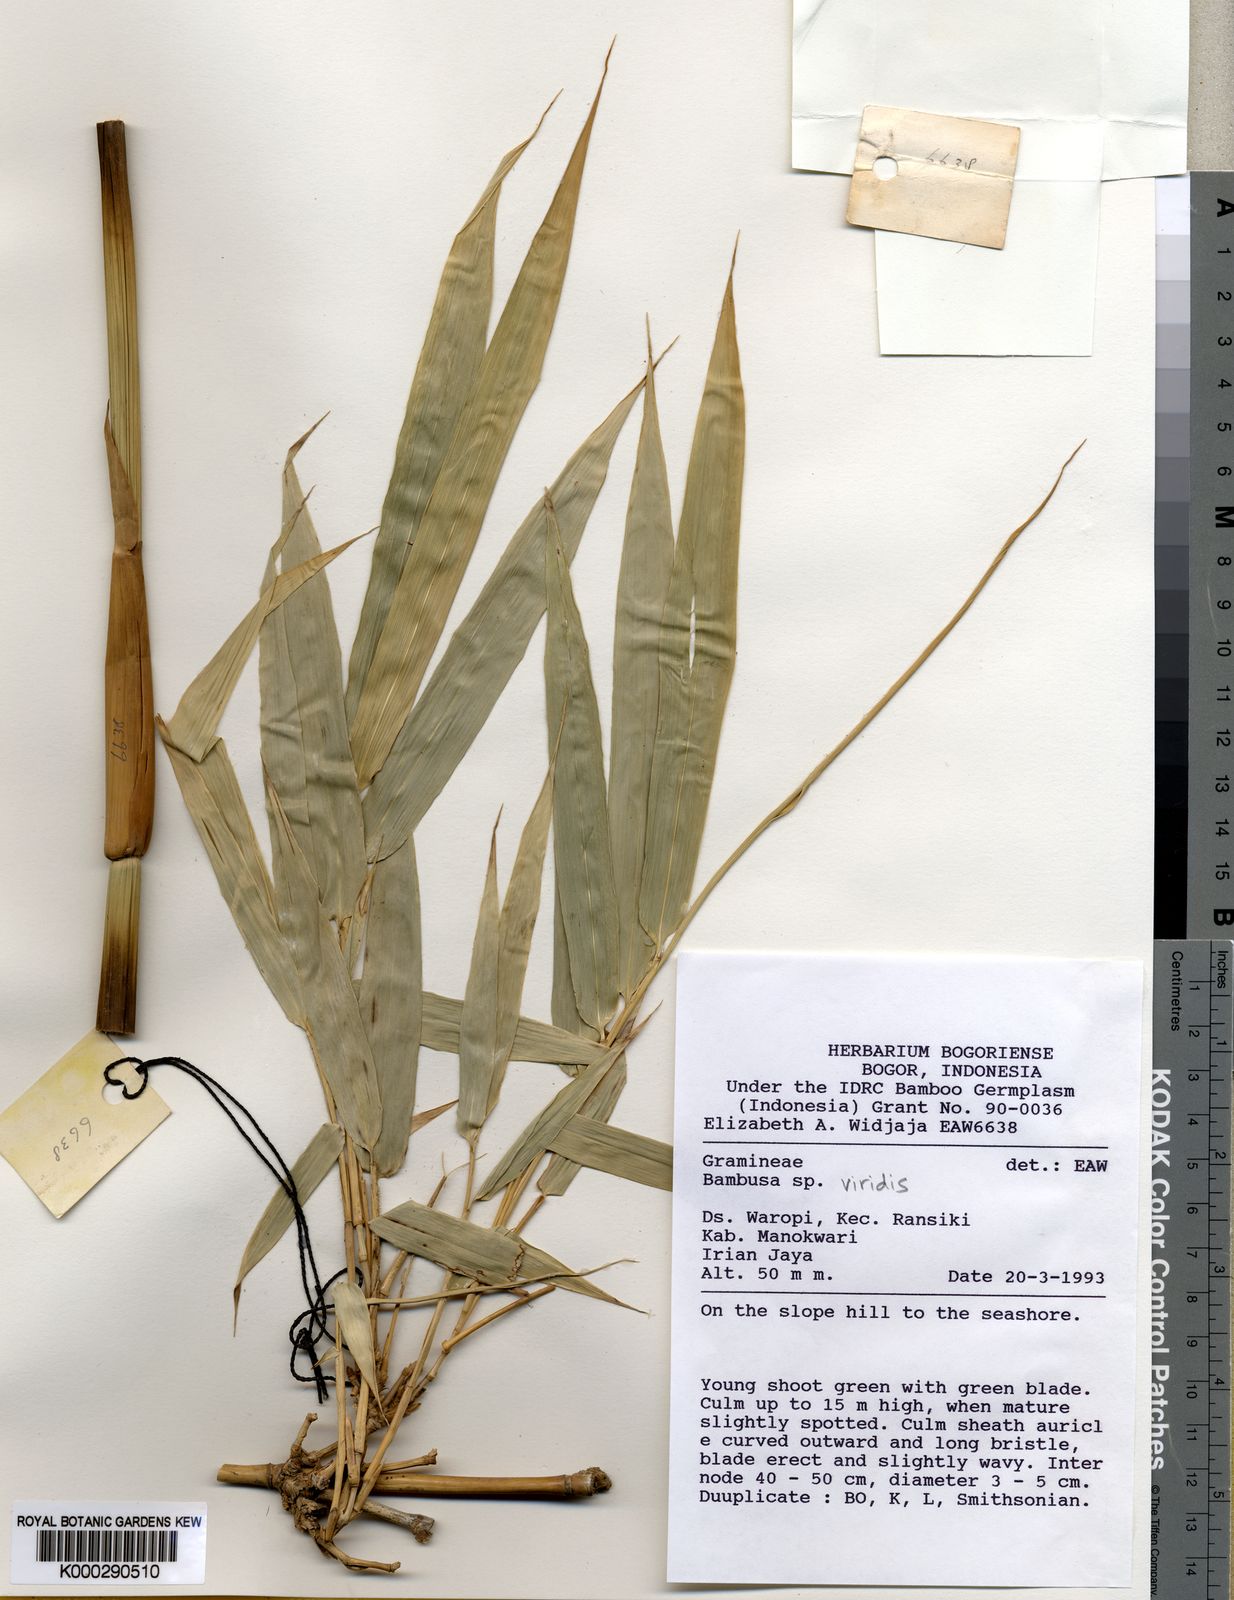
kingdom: Plantae
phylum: Tracheophyta
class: Liliopsida
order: Poales
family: Poaceae
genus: Bambusa
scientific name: Bambusa viridis
